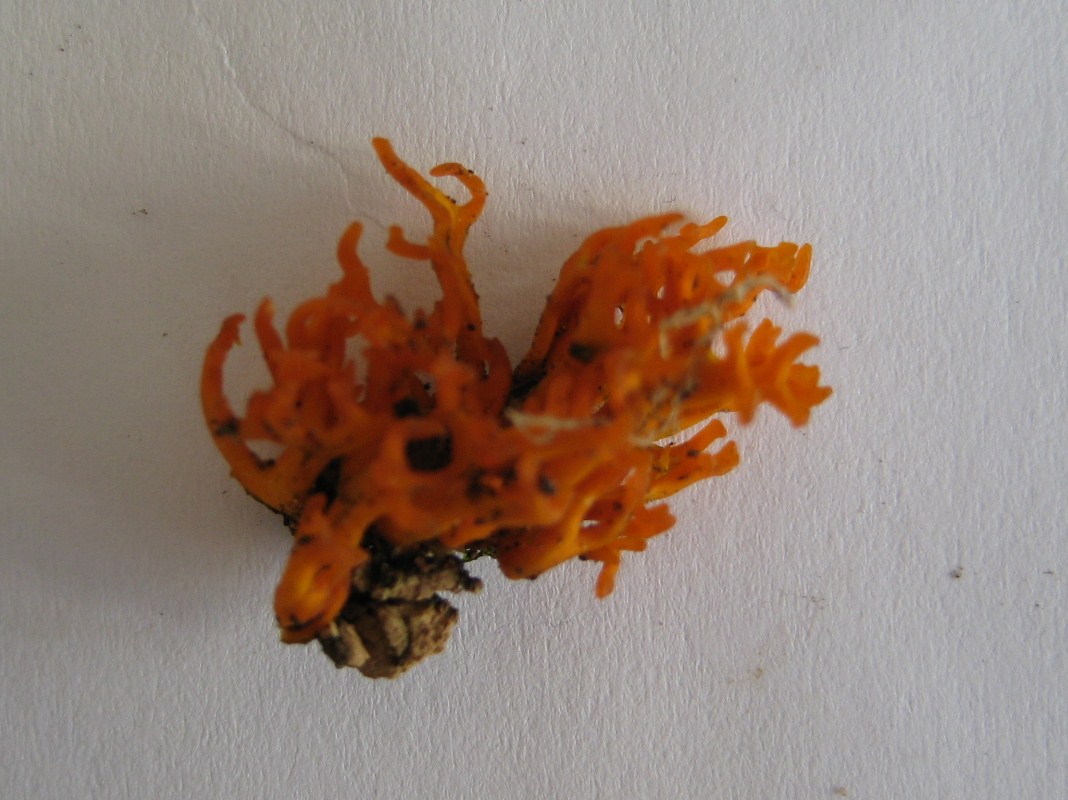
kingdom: Fungi
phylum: Basidiomycota
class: Dacrymycetes
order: Dacrymycetales
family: Dacrymycetaceae
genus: Calocera
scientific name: Calocera viscosa
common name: almindelig guldgaffel
